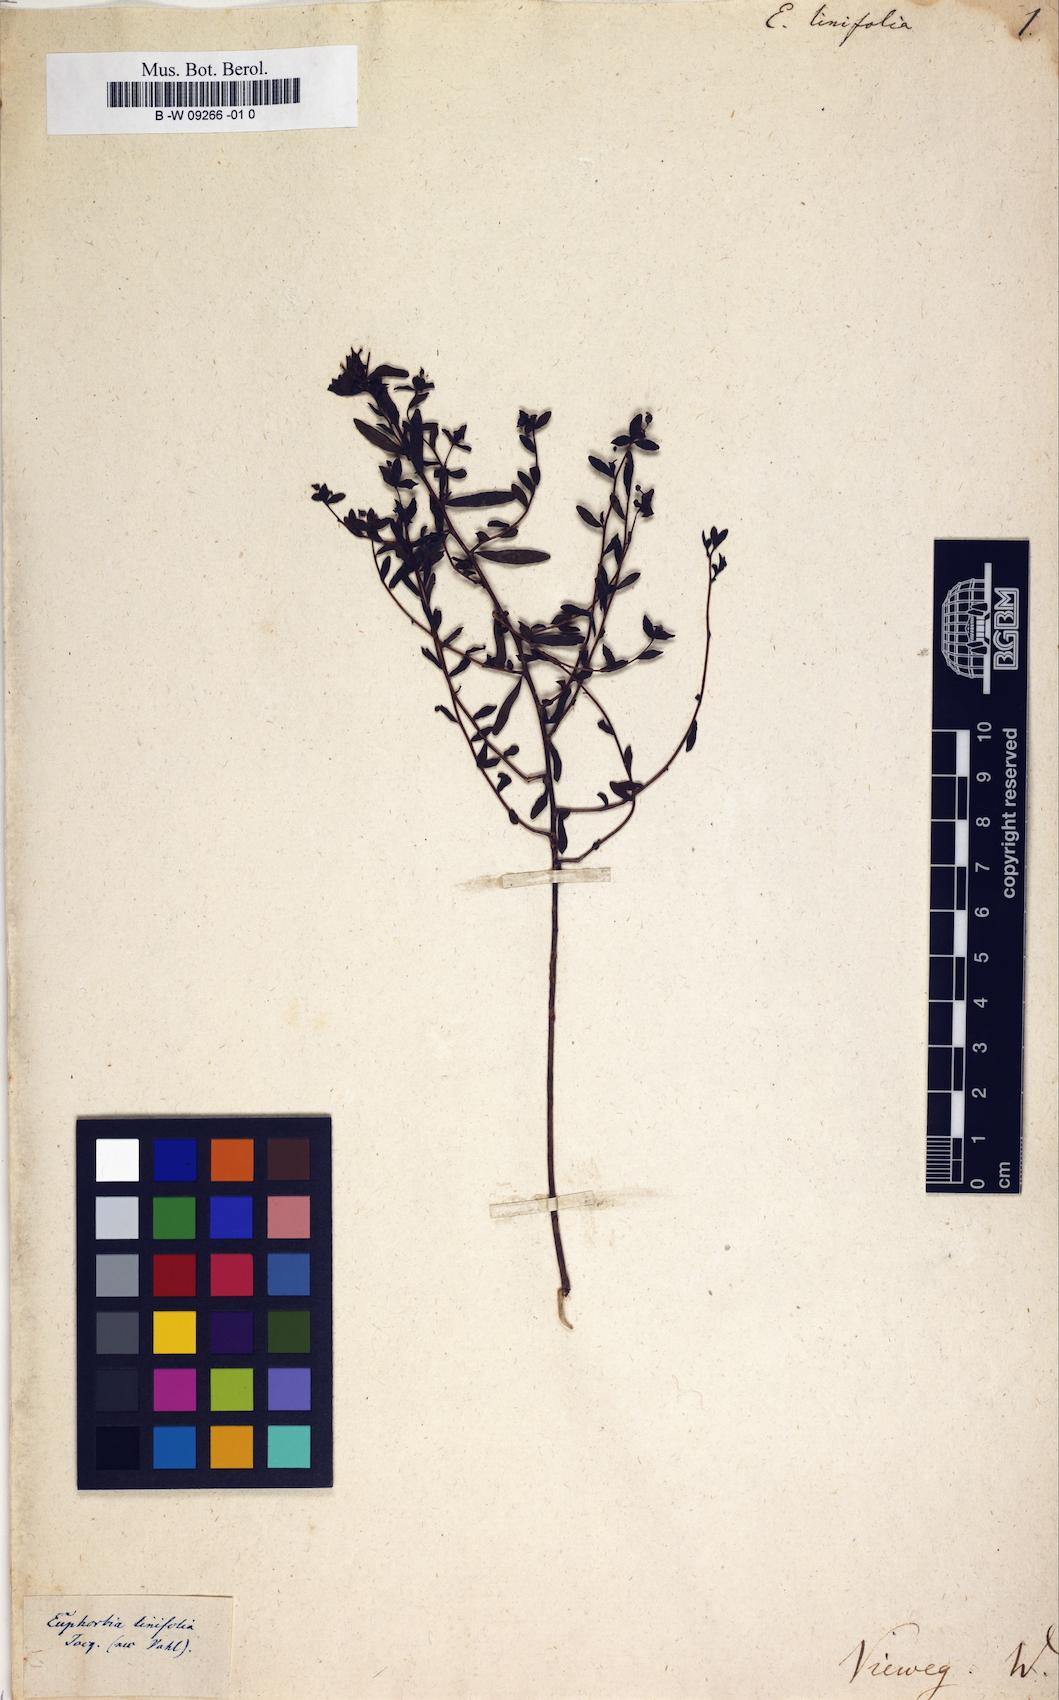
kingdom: Plantae
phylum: Tracheophyta
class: Magnoliopsida
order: Malpighiales
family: Euphorbiaceae
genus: Euphorbia
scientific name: Euphorbia linifolia
